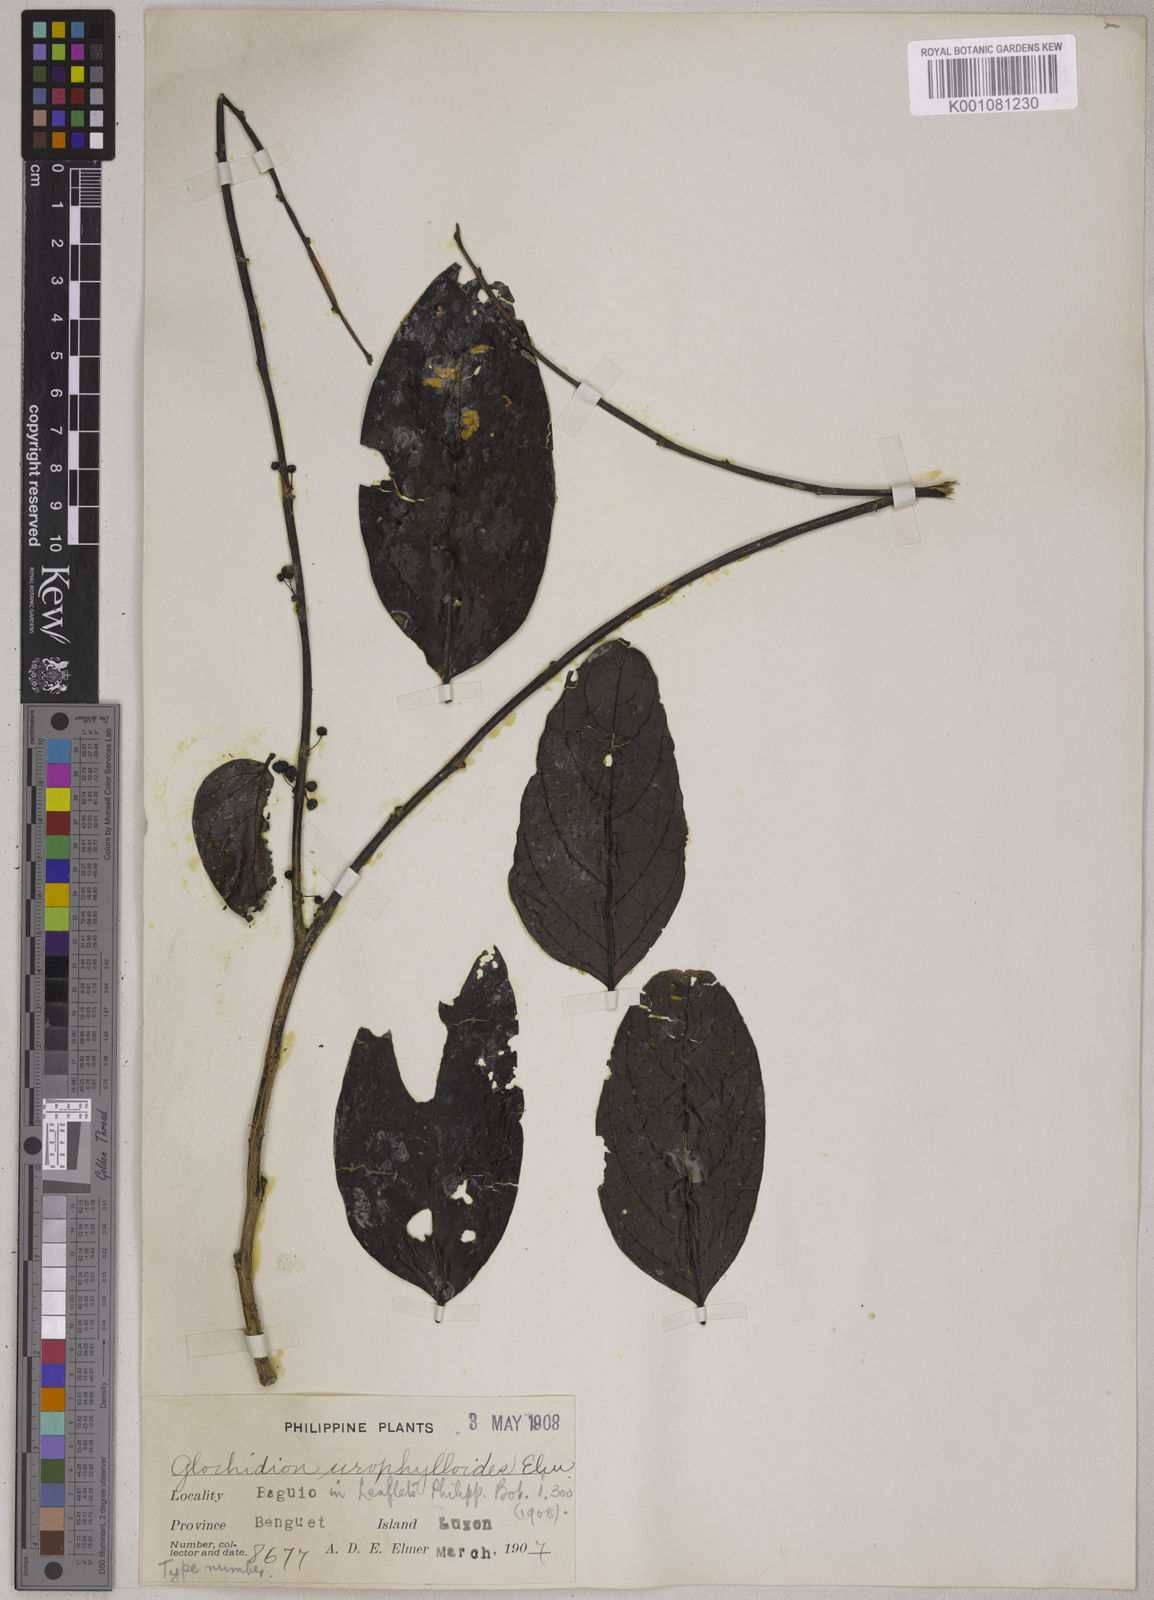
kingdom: Plantae
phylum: Tracheophyta
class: Magnoliopsida
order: Malpighiales
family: Phyllanthaceae
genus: Glochidion
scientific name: Glochidion urophylloides
